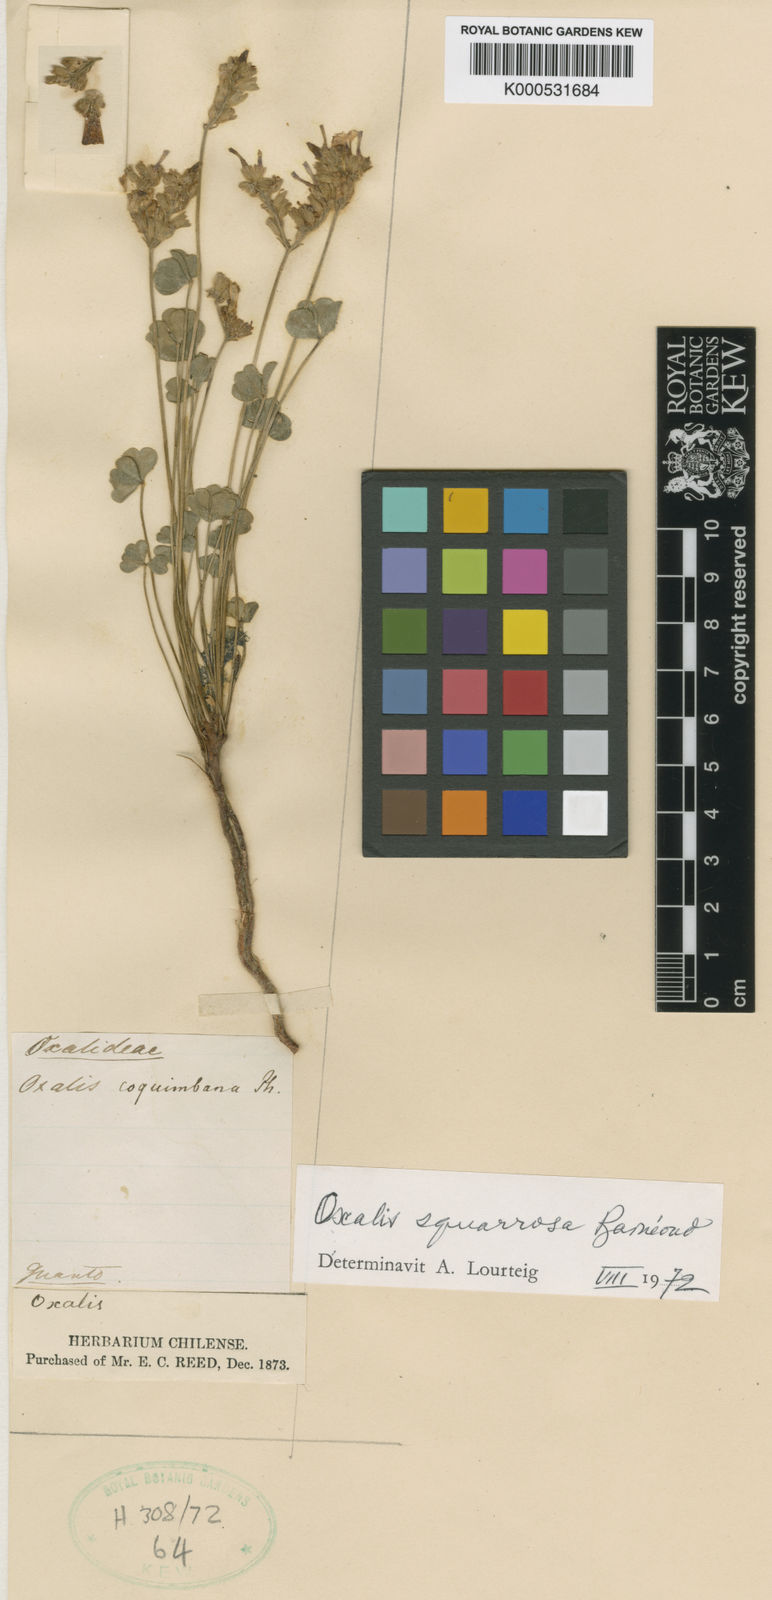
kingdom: Plantae
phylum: Tracheophyta
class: Magnoliopsida
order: Oxalidales
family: Oxalidaceae
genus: Oxalis
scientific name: Oxalis
